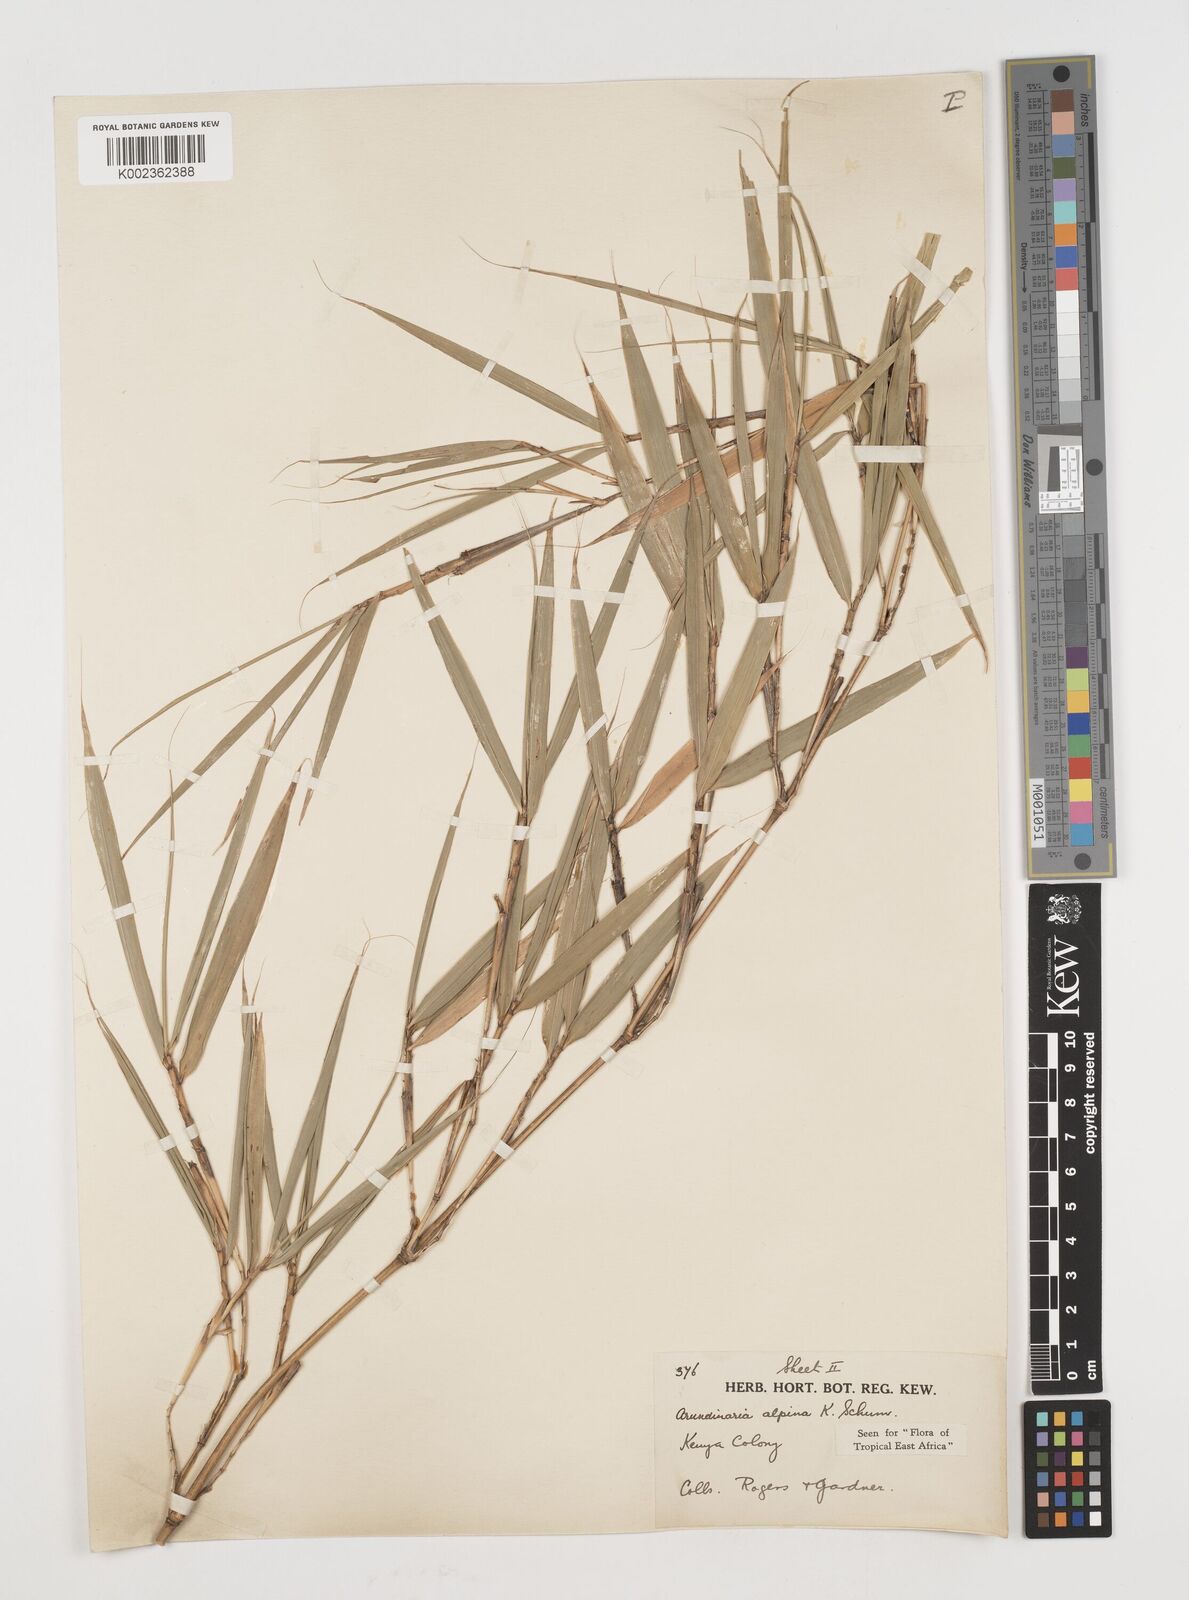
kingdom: Plantae
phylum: Tracheophyta
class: Liliopsida
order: Poales
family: Poaceae
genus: Oldeania
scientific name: Oldeania alpina
